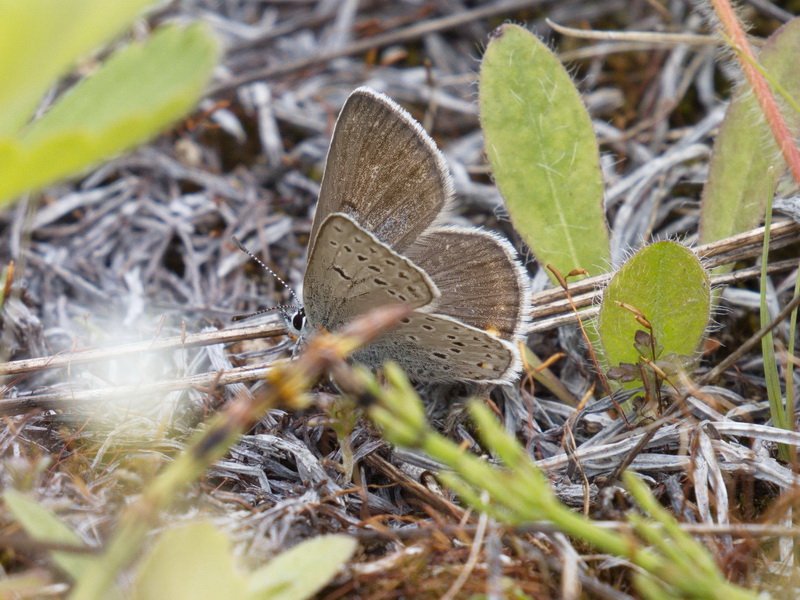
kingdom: Animalia
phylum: Arthropoda
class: Insecta
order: Lepidoptera
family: Lycaenidae
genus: Plebejus
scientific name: Plebejus saepiolus
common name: Greenish Blue
